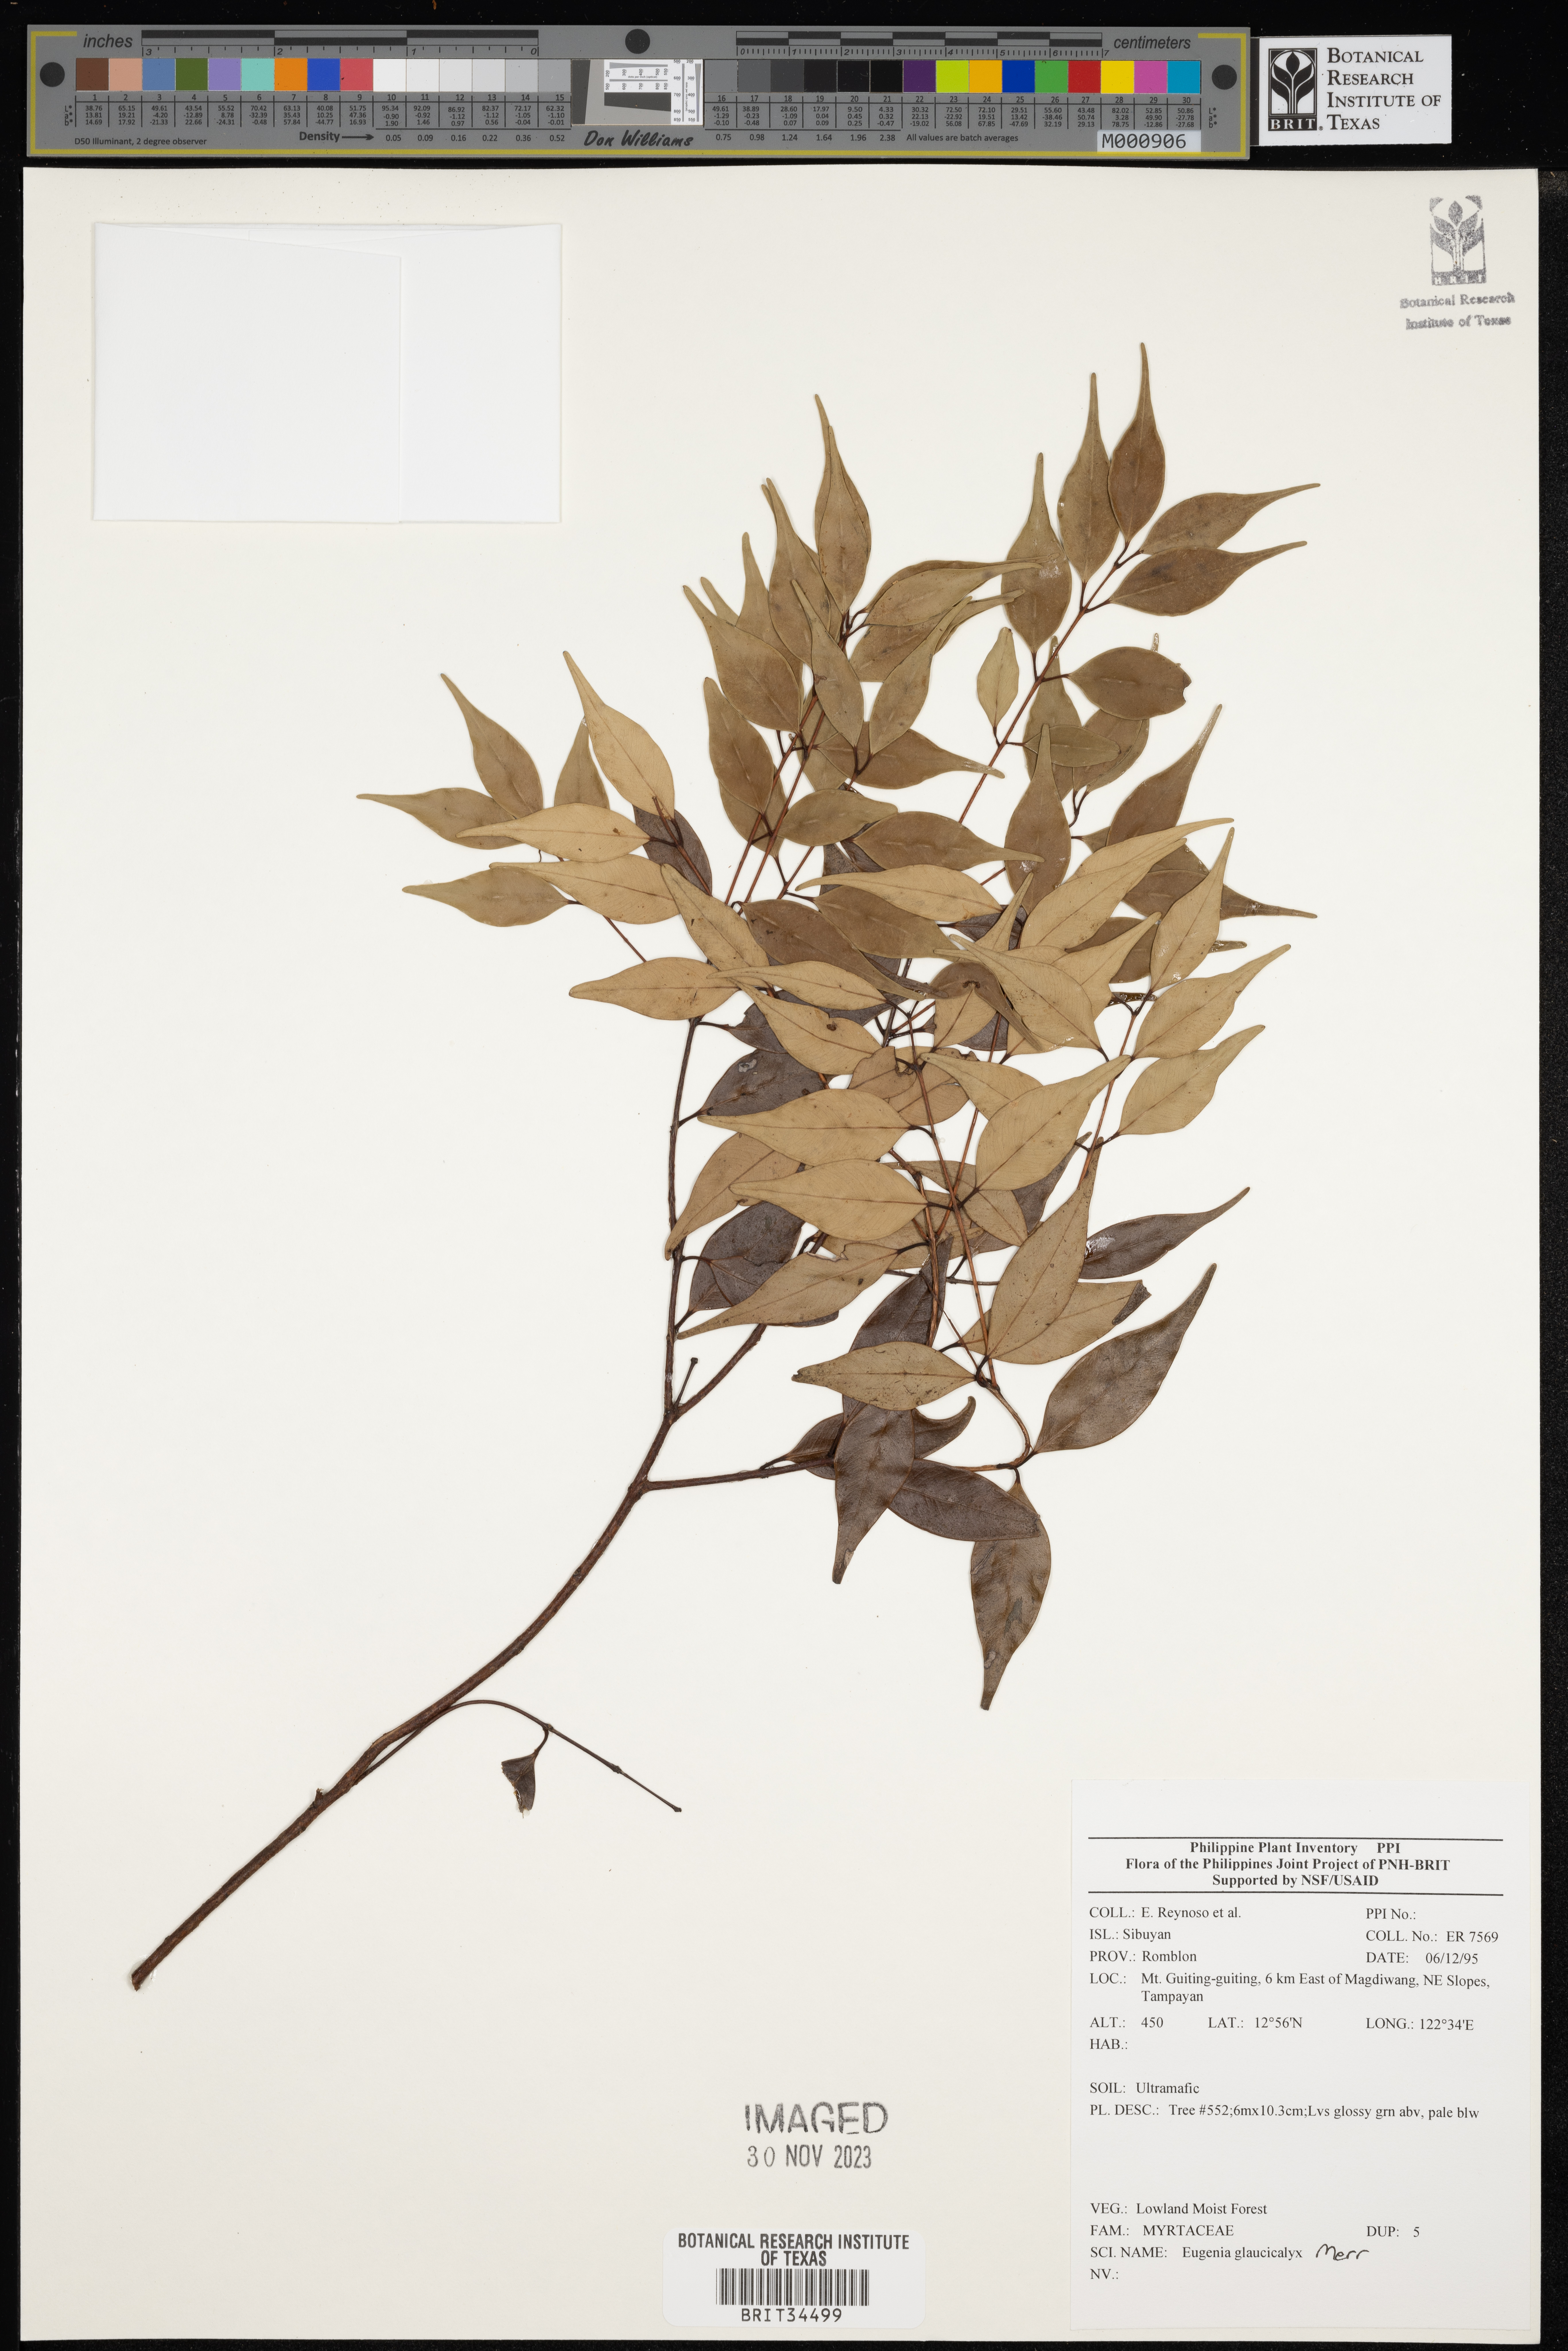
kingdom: Plantae
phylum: Tracheophyta
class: Magnoliopsida
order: Myrtales
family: Myrtaceae
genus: Eugenia
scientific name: Eugenia
